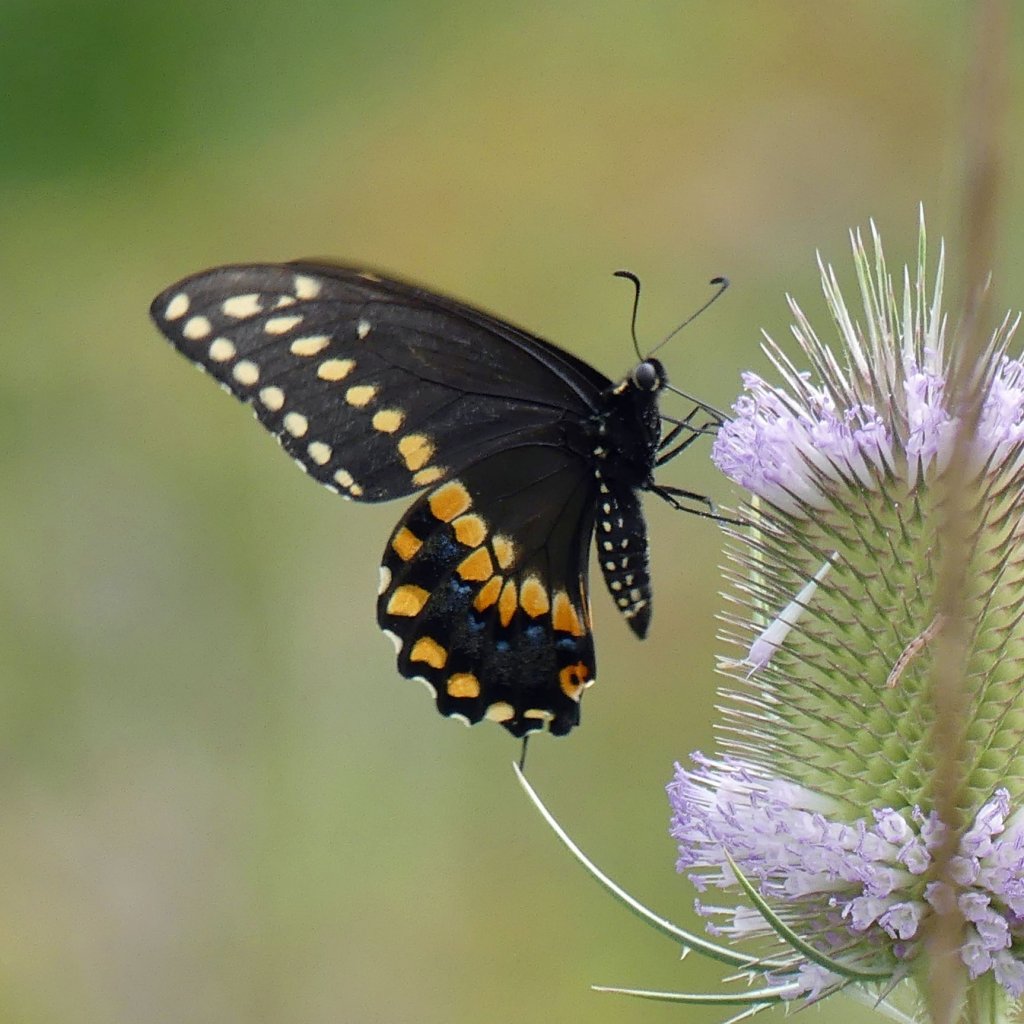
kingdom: Animalia
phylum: Arthropoda
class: Insecta
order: Lepidoptera
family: Papilionidae
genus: Papilio
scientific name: Papilio polyxenes
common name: Black Swallowtail
